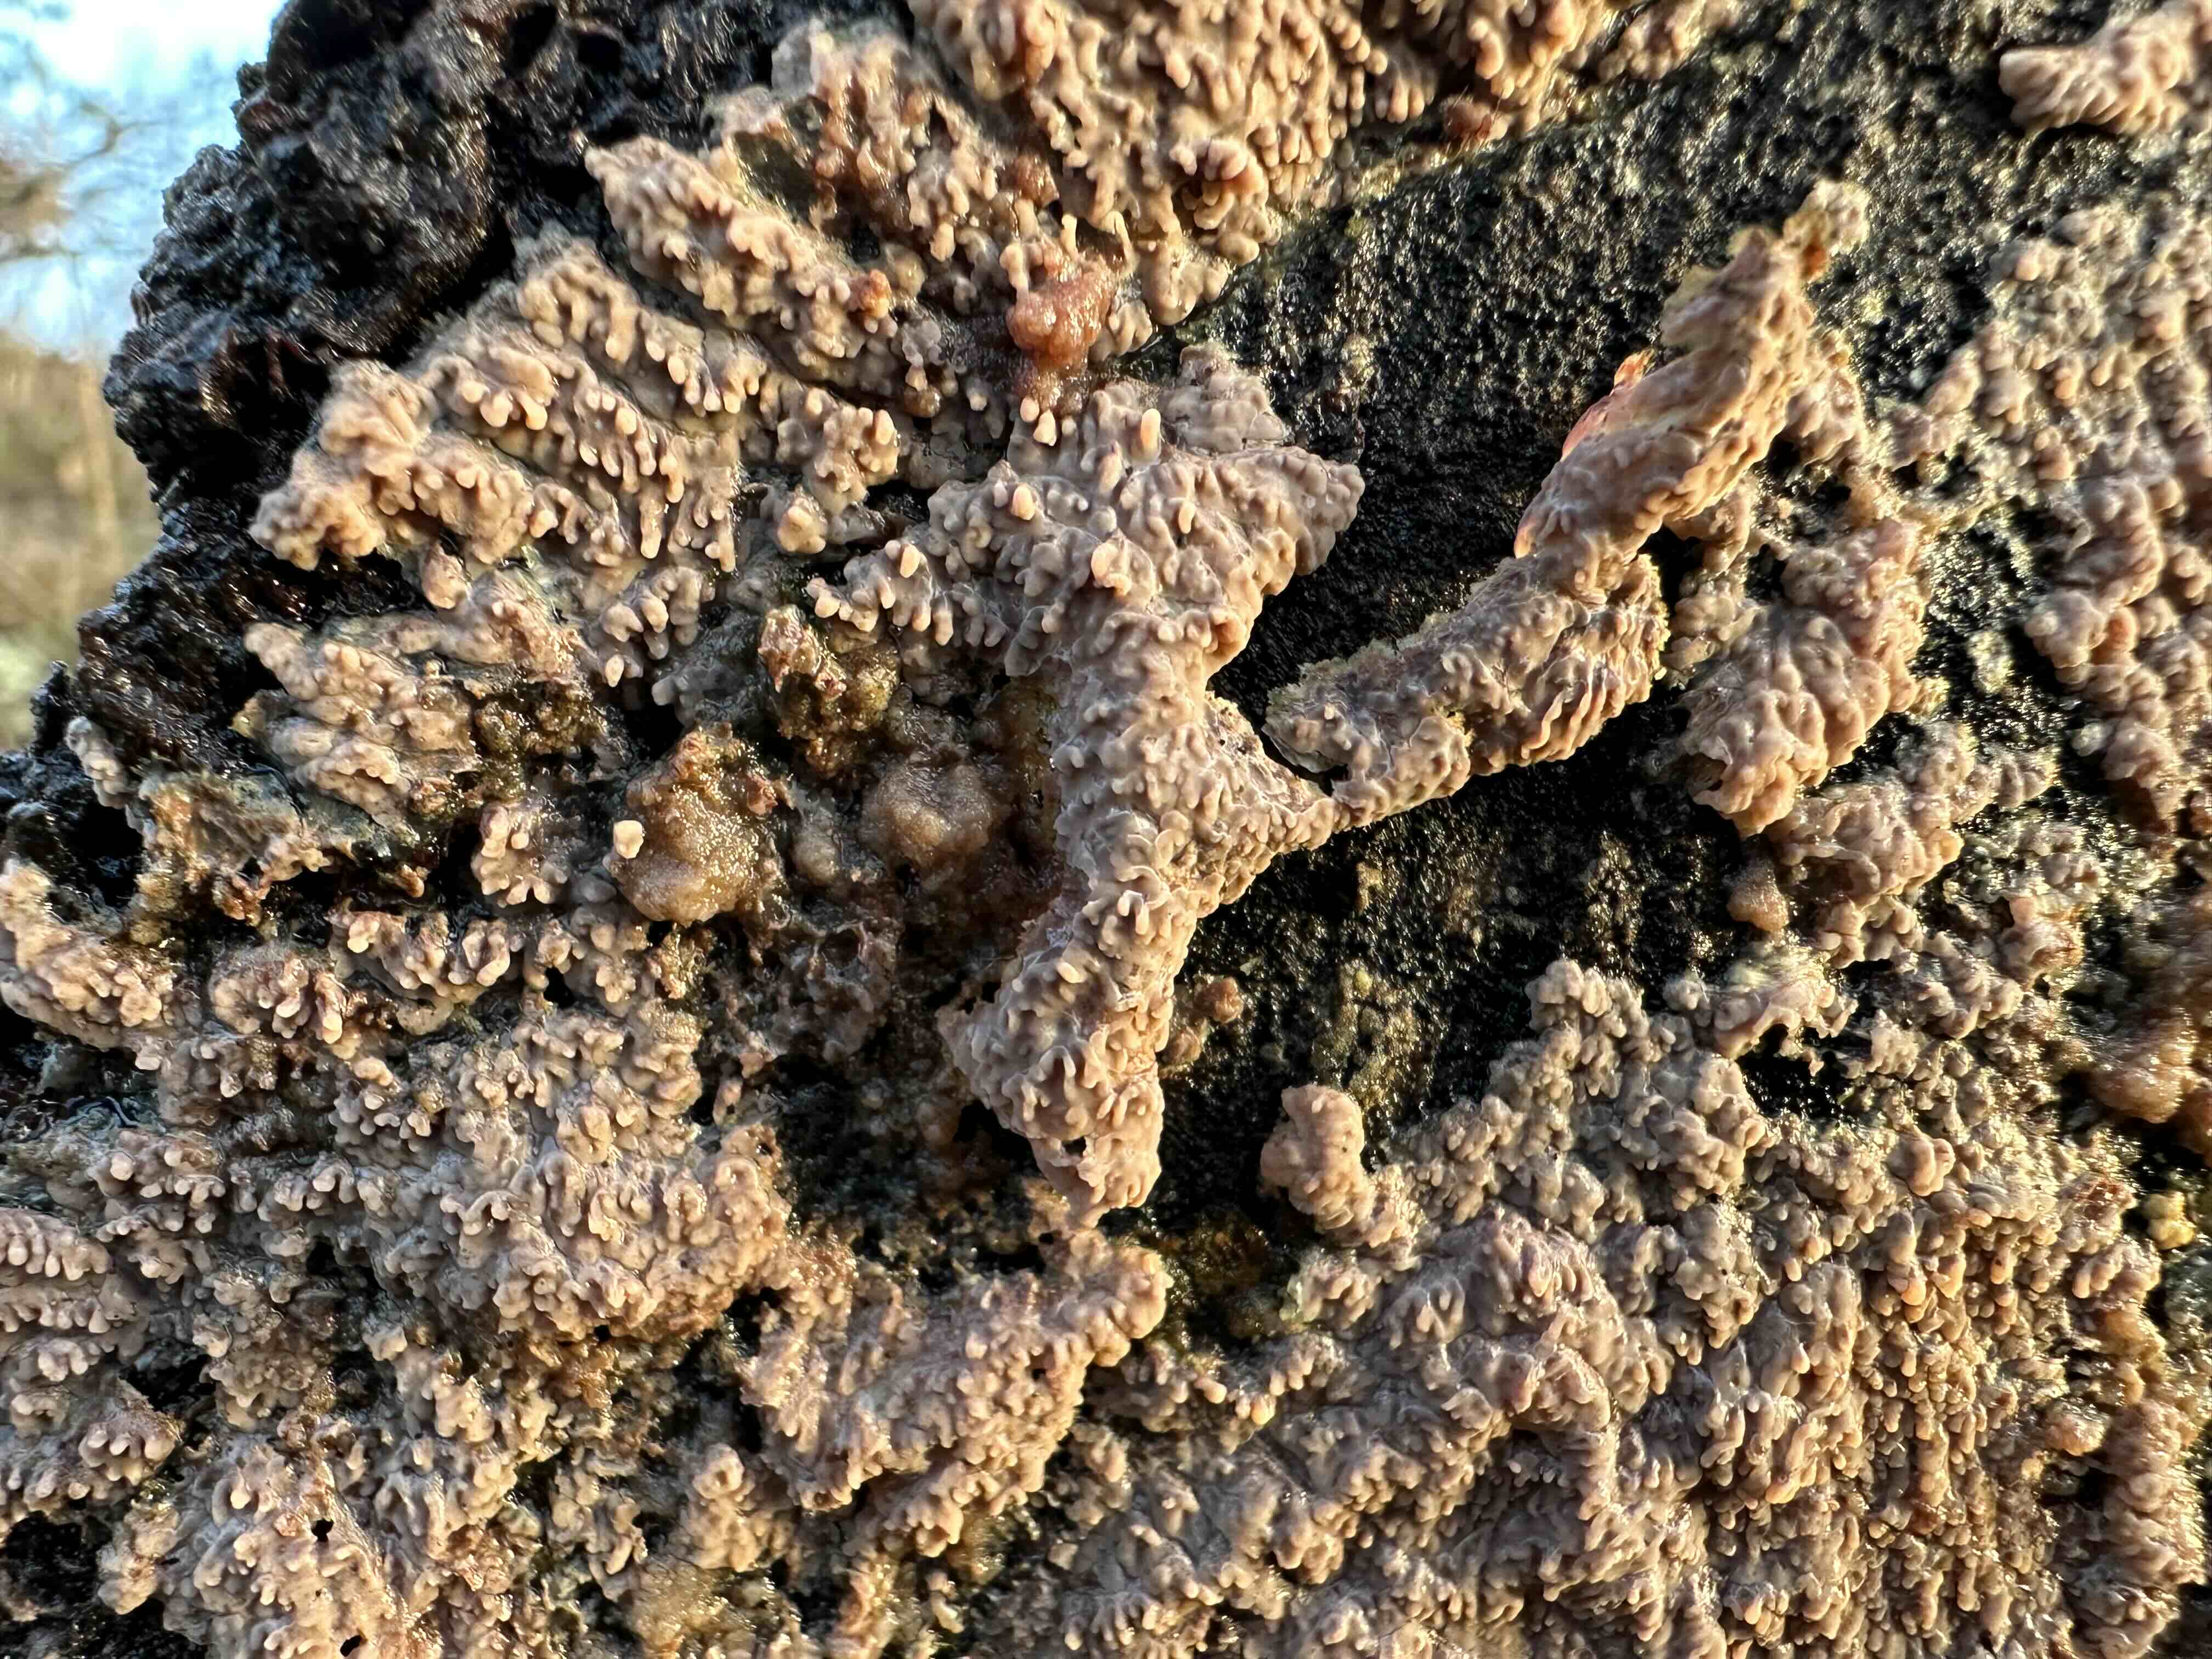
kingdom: Fungi
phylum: Basidiomycota
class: Agaricomycetes
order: Polyporales
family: Meruliaceae
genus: Phlebia
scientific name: Phlebia radiata
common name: stråle-åresvamp
